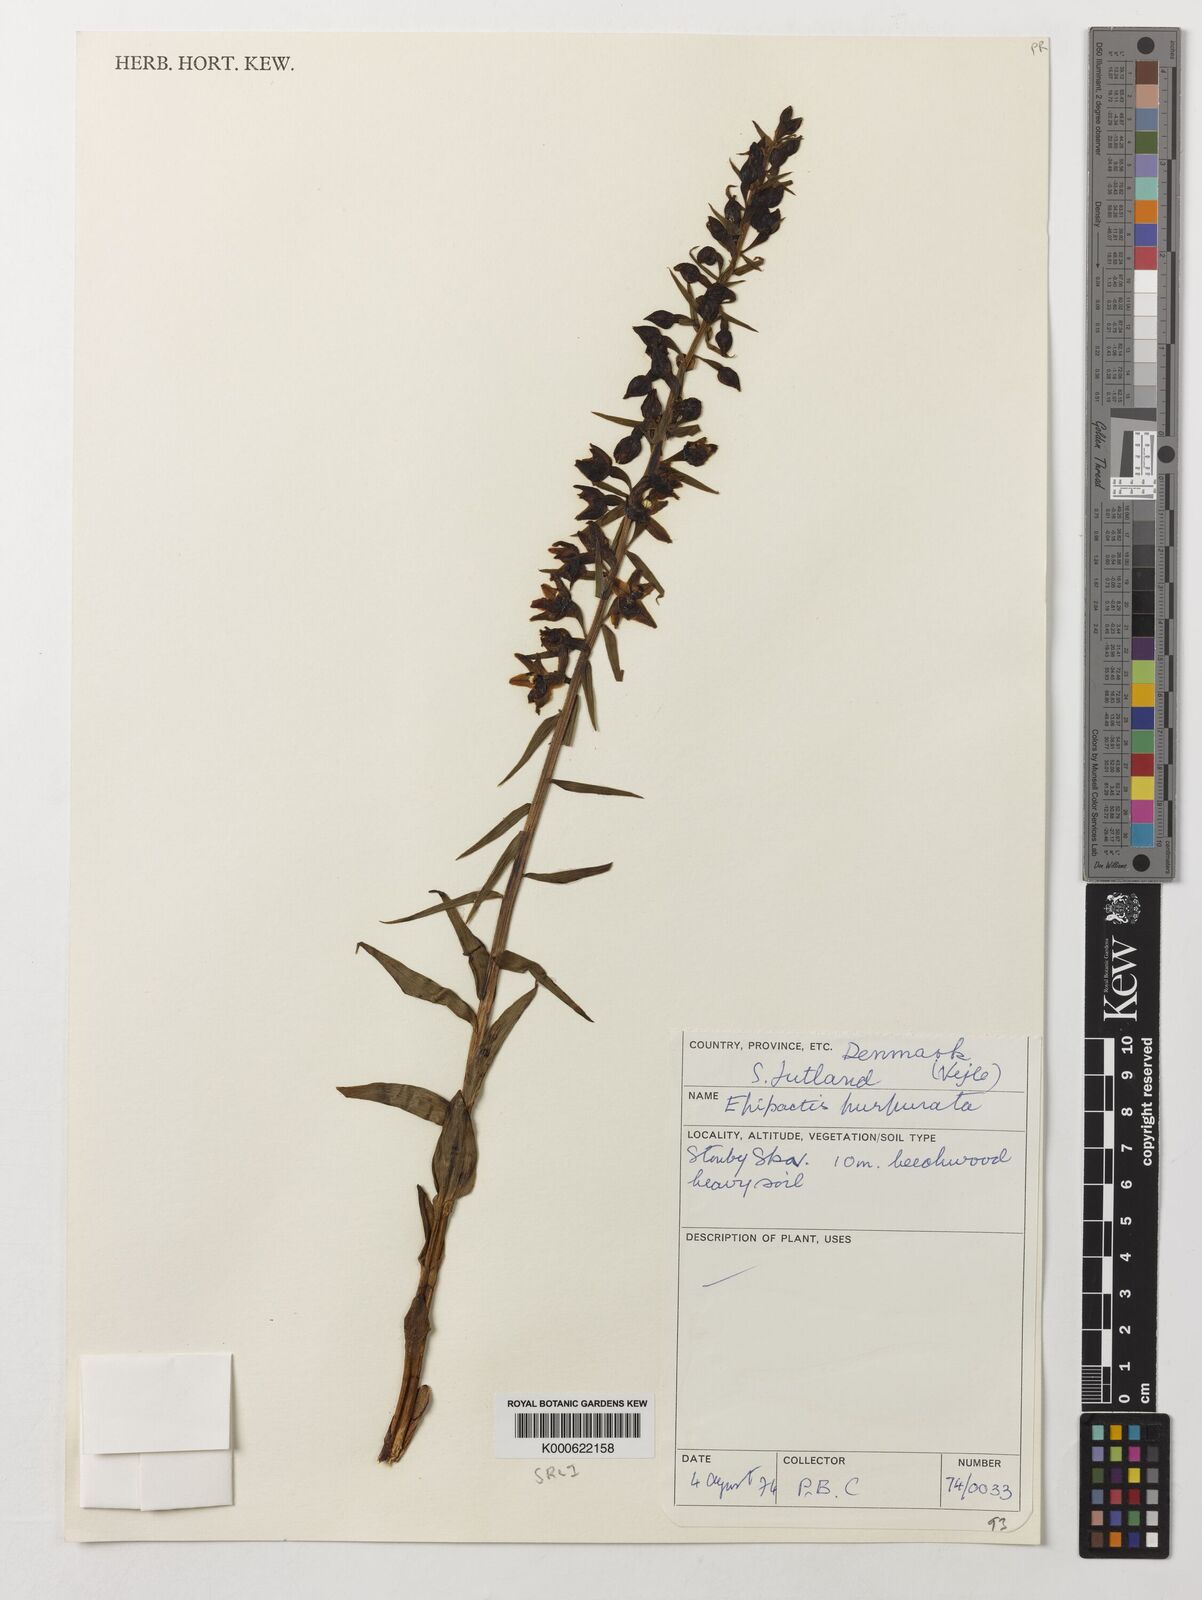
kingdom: Plantae
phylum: Tracheophyta
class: Liliopsida
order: Asparagales
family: Orchidaceae
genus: Epipactis
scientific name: Epipactis purpurata
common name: Violet helleborine
